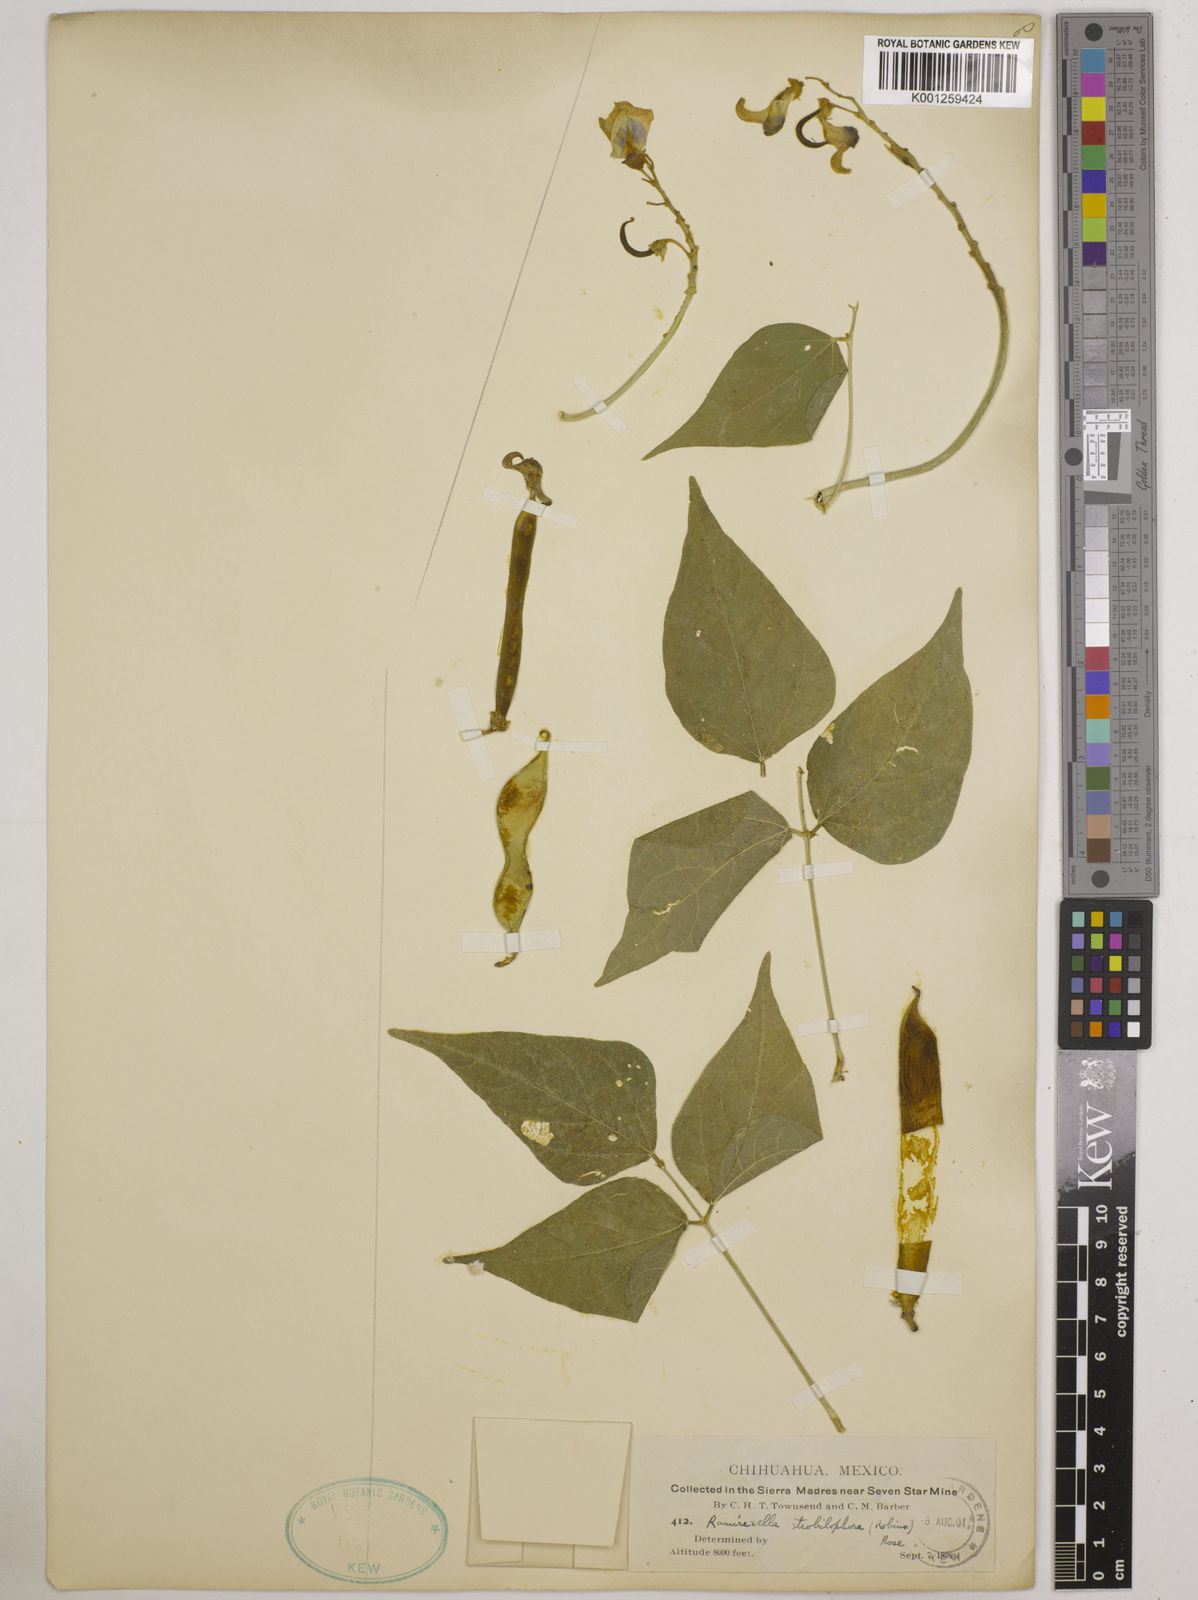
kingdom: Plantae
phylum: Tracheophyta
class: Magnoliopsida
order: Fabales
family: Fabaceae
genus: Ramirezella
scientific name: Ramirezella strobilophora
